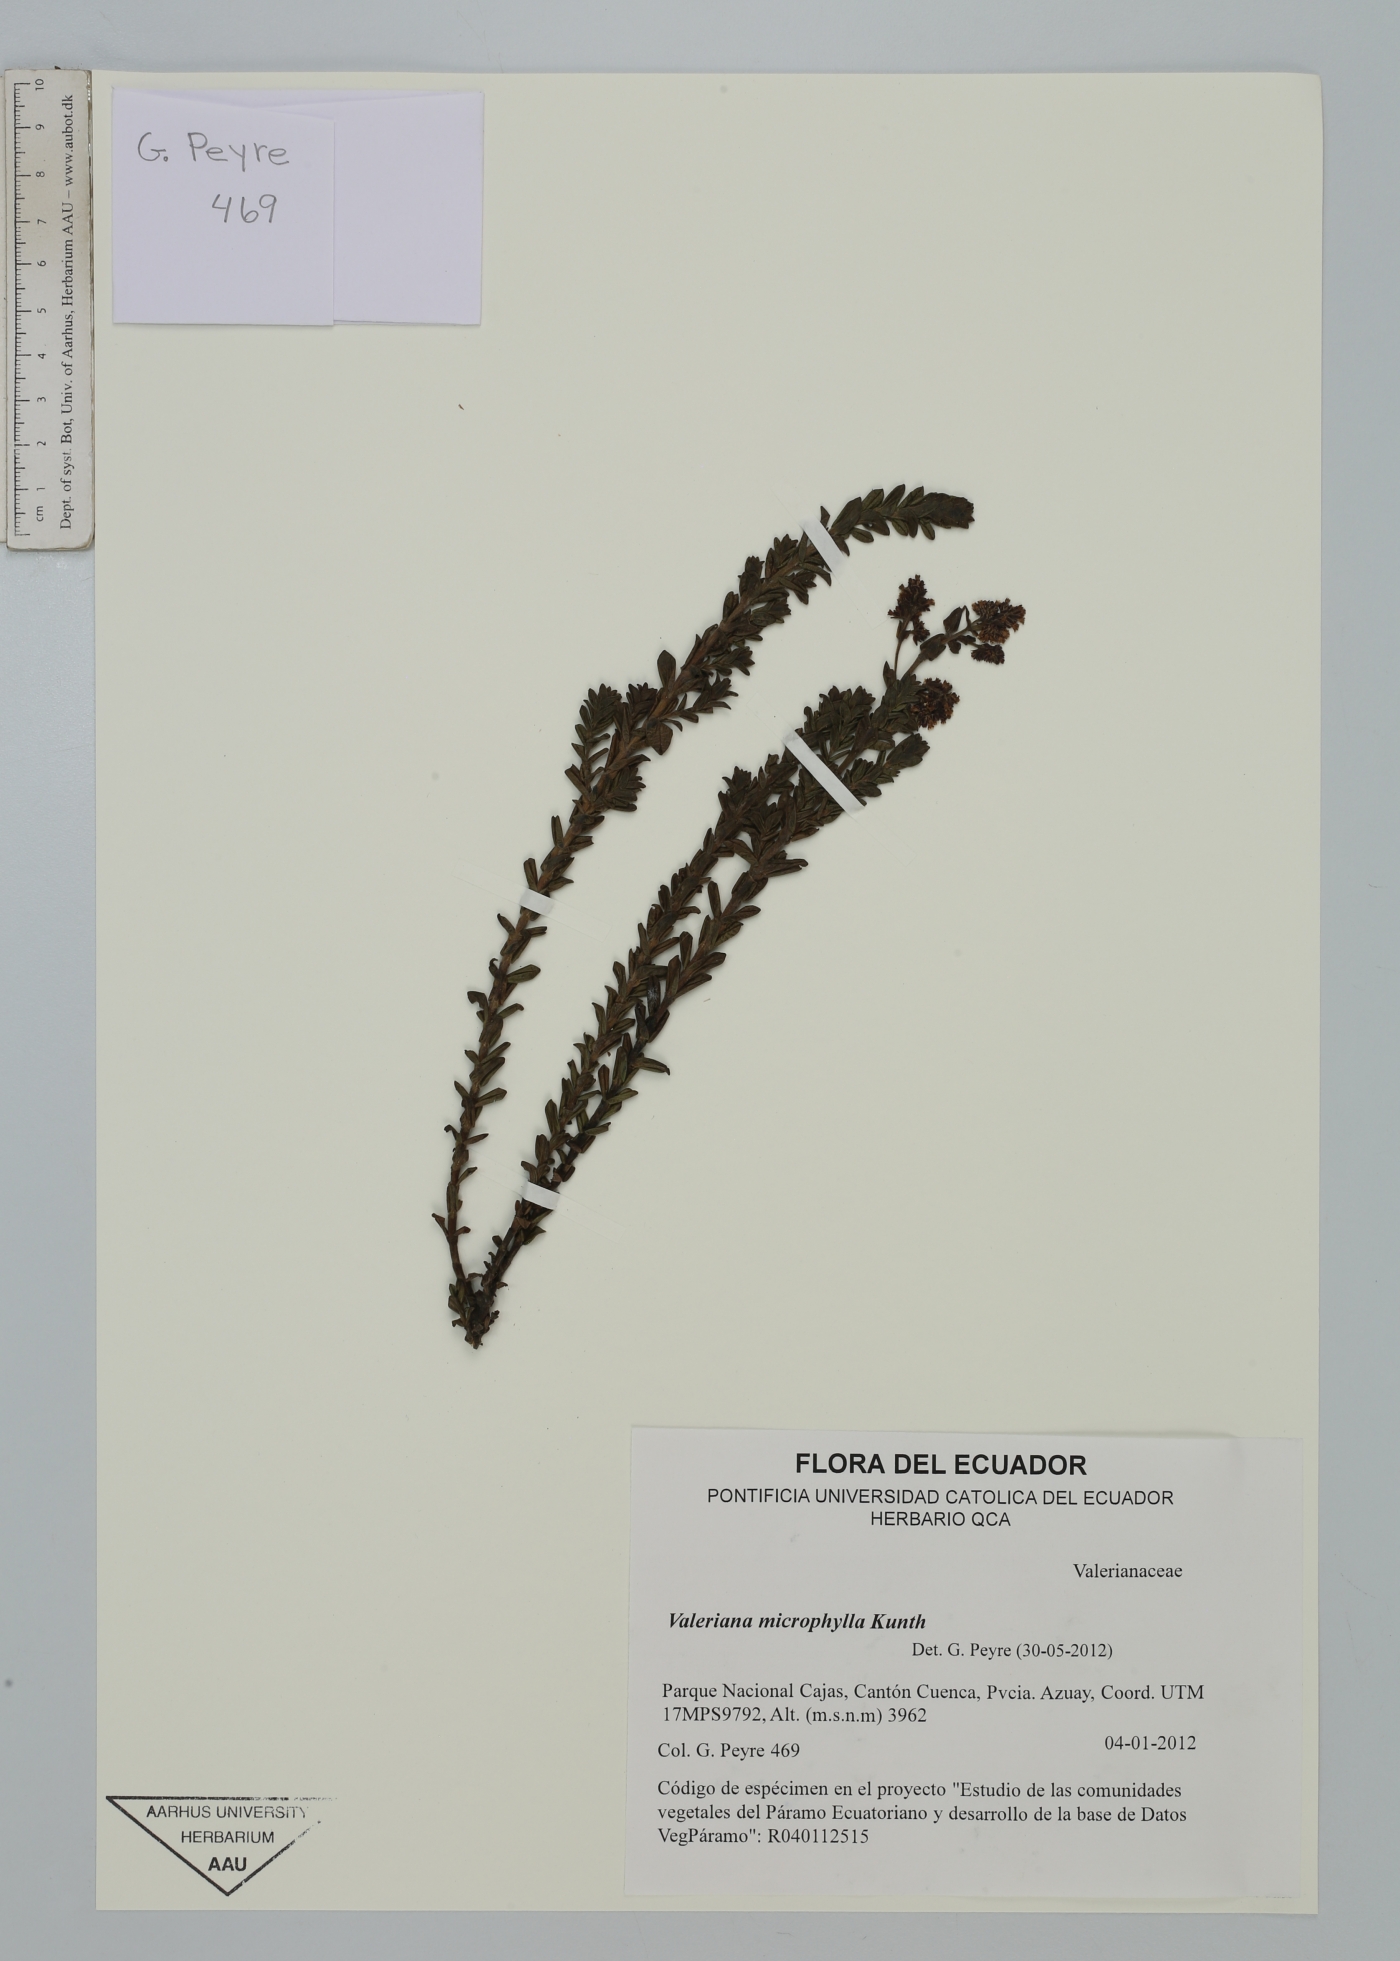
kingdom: Plantae
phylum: Tracheophyta
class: Magnoliopsida
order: Dipsacales
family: Caprifoliaceae
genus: Valeriana
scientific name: Valeriana microphylla
